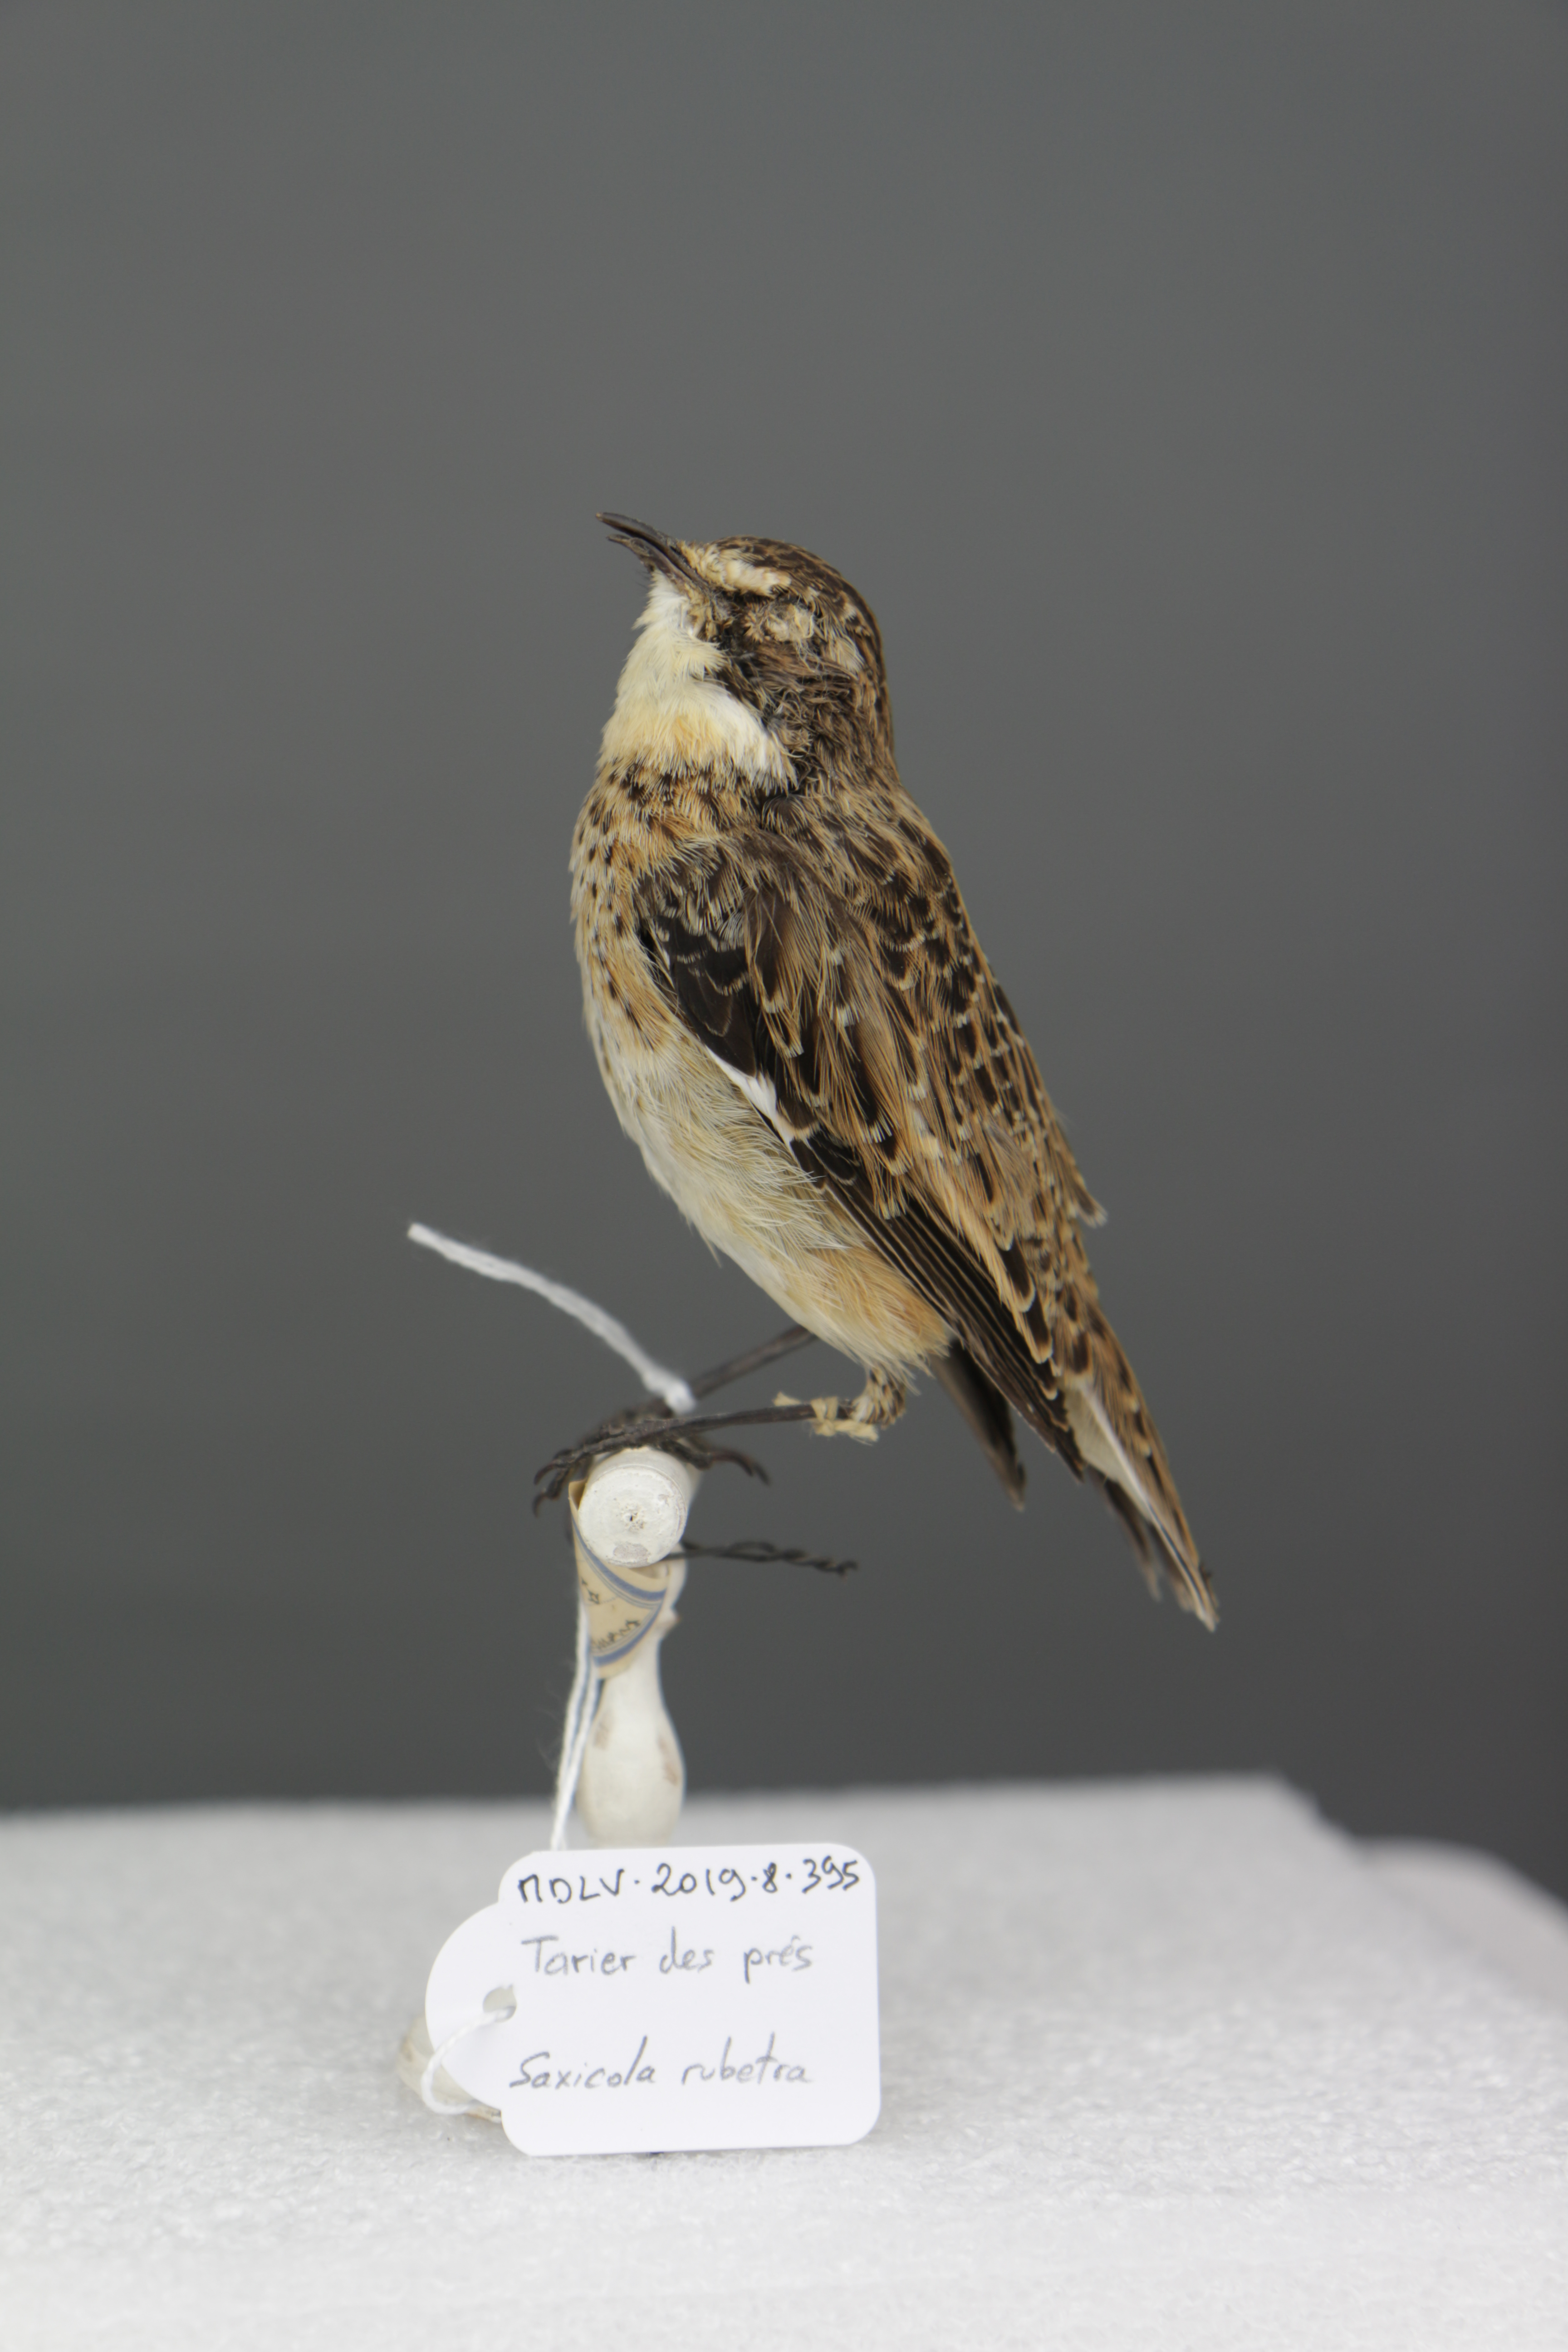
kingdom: Animalia
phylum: Chordata
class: Aves
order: Passeriformes
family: Muscicapidae
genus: Saxicola
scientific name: Saxicola rubetra
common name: Whinchat
